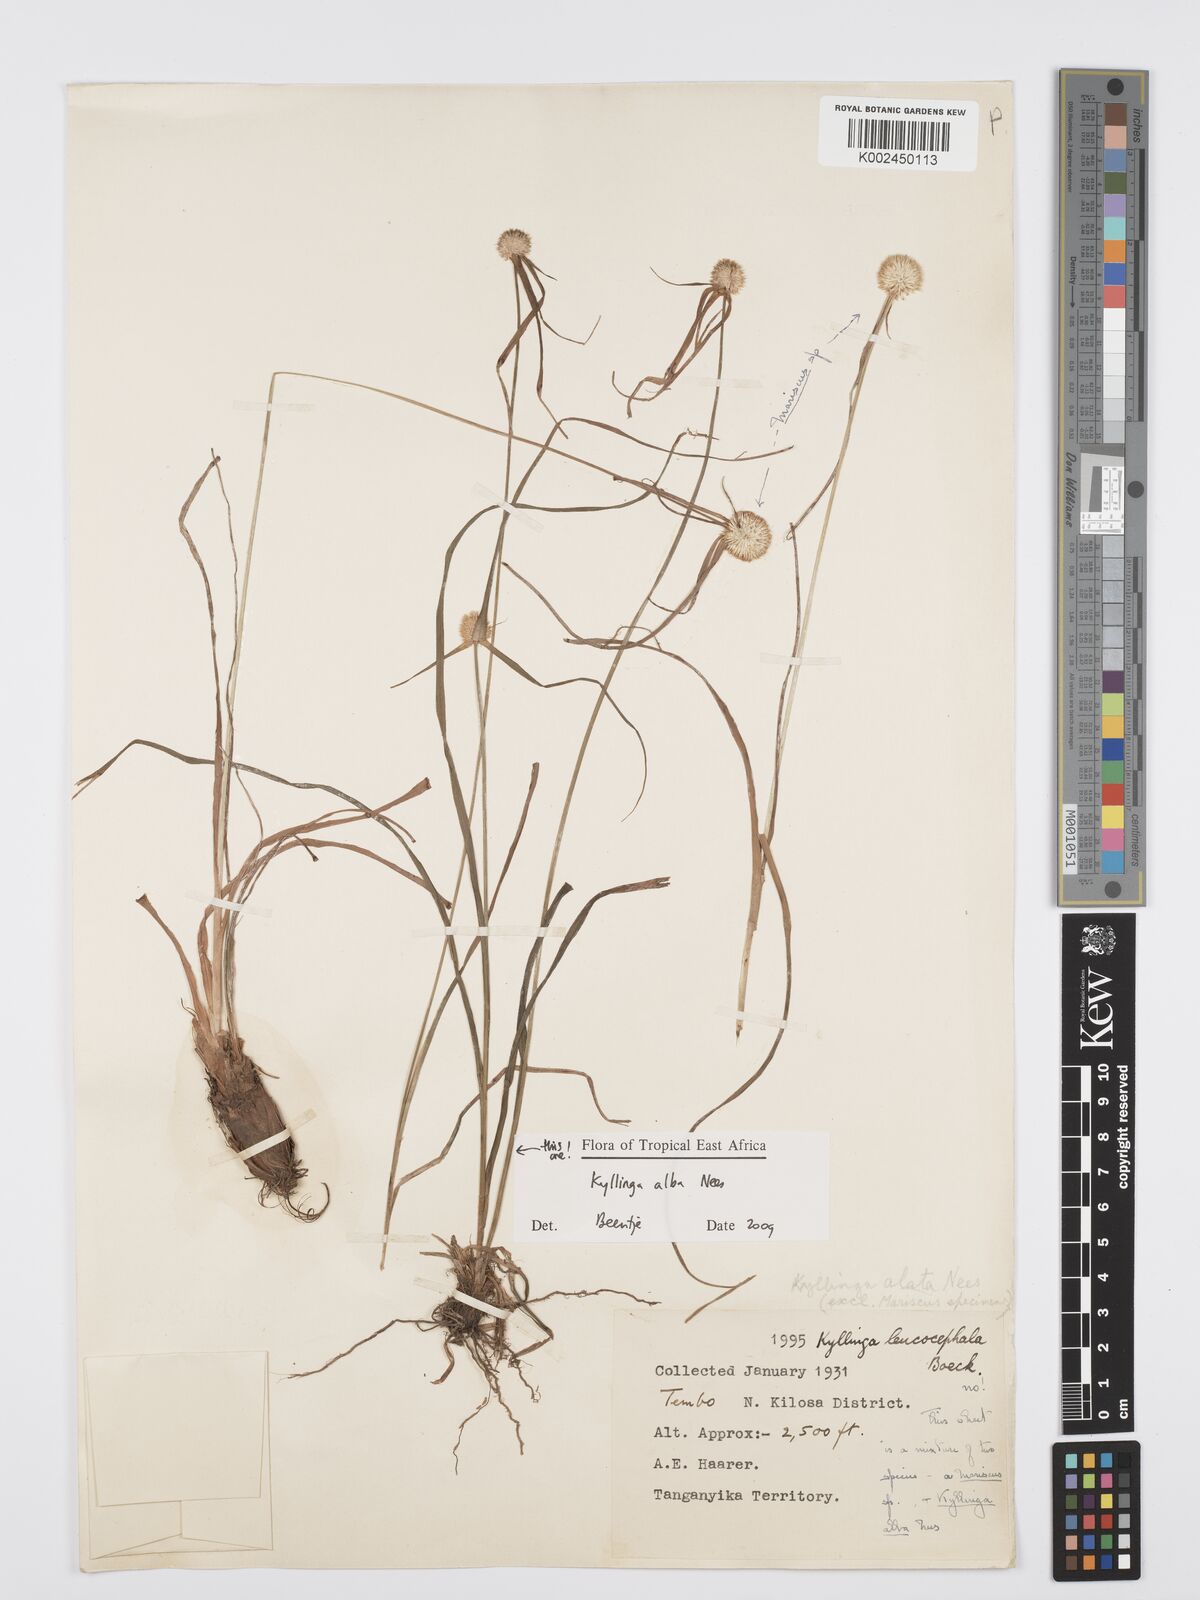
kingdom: Plantae
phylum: Tracheophyta
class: Liliopsida
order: Poales
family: Cyperaceae
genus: Cyperus
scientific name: Cyperus
